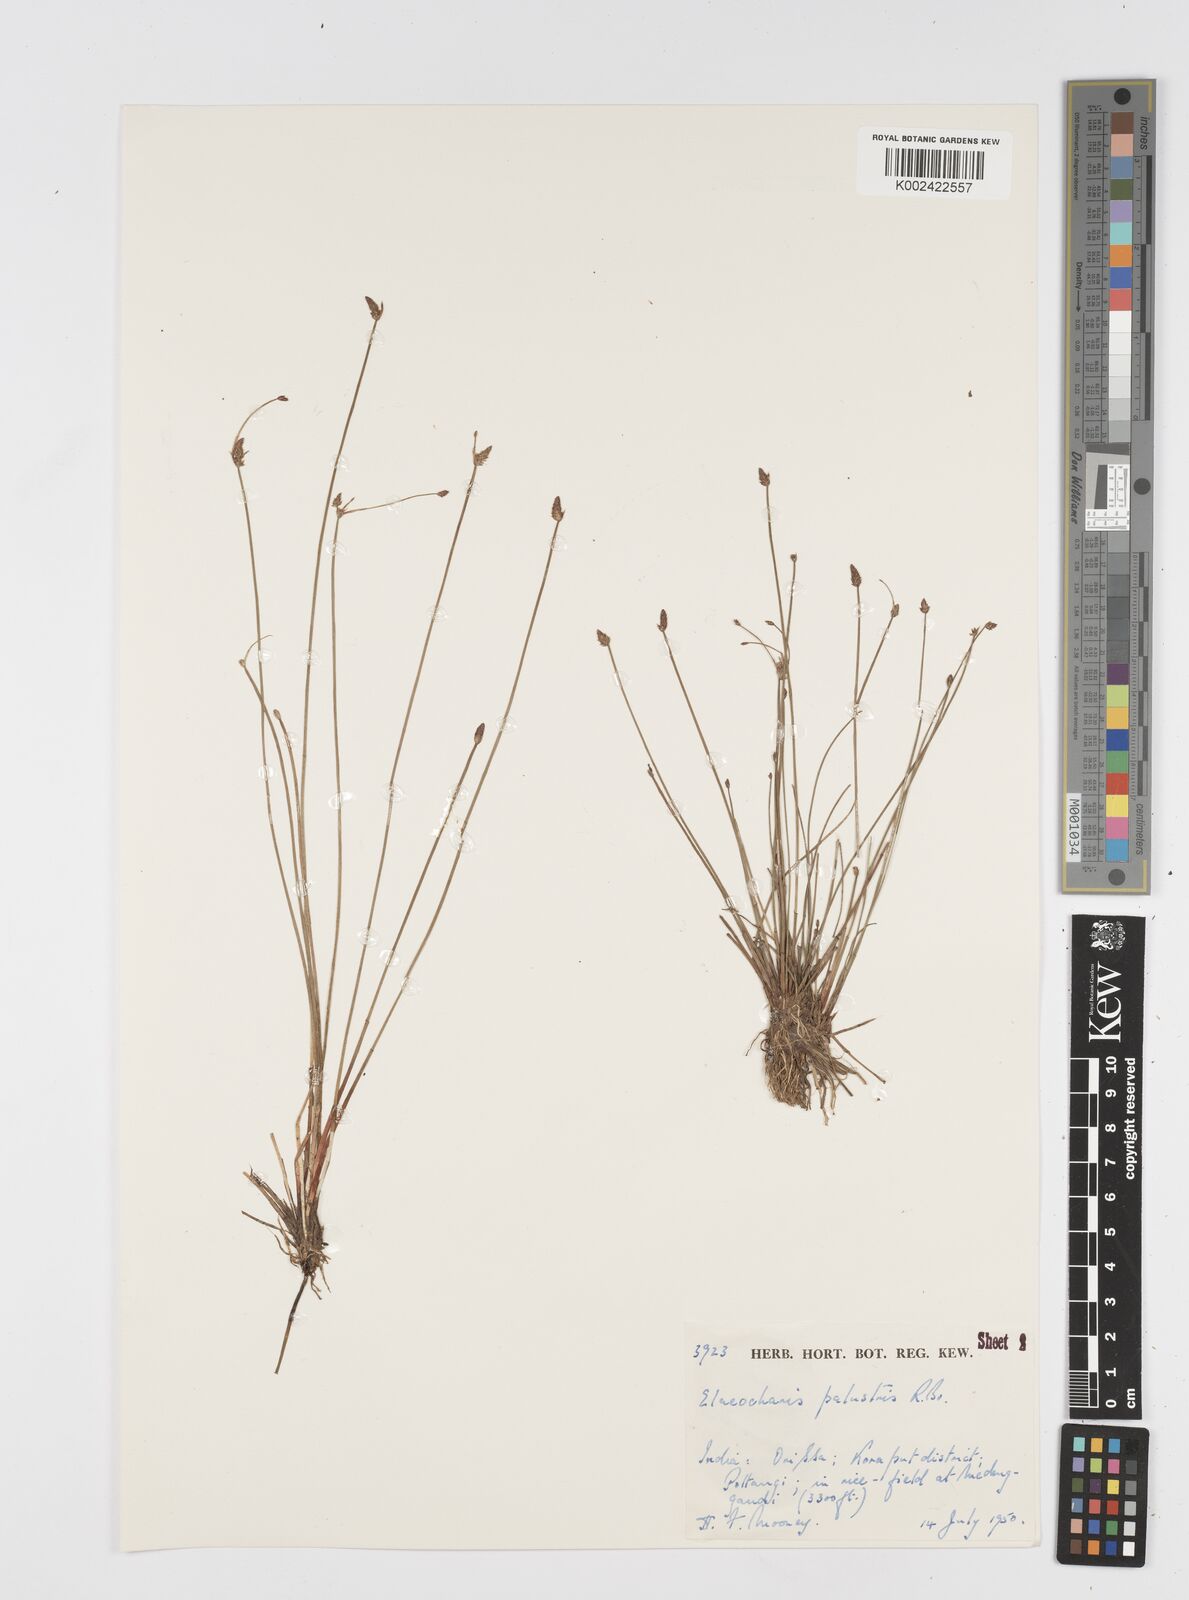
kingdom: Plantae
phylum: Tracheophyta
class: Liliopsida
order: Poales
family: Cyperaceae
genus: Eleocharis
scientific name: Eleocharis palustris
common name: Common spike-rush
